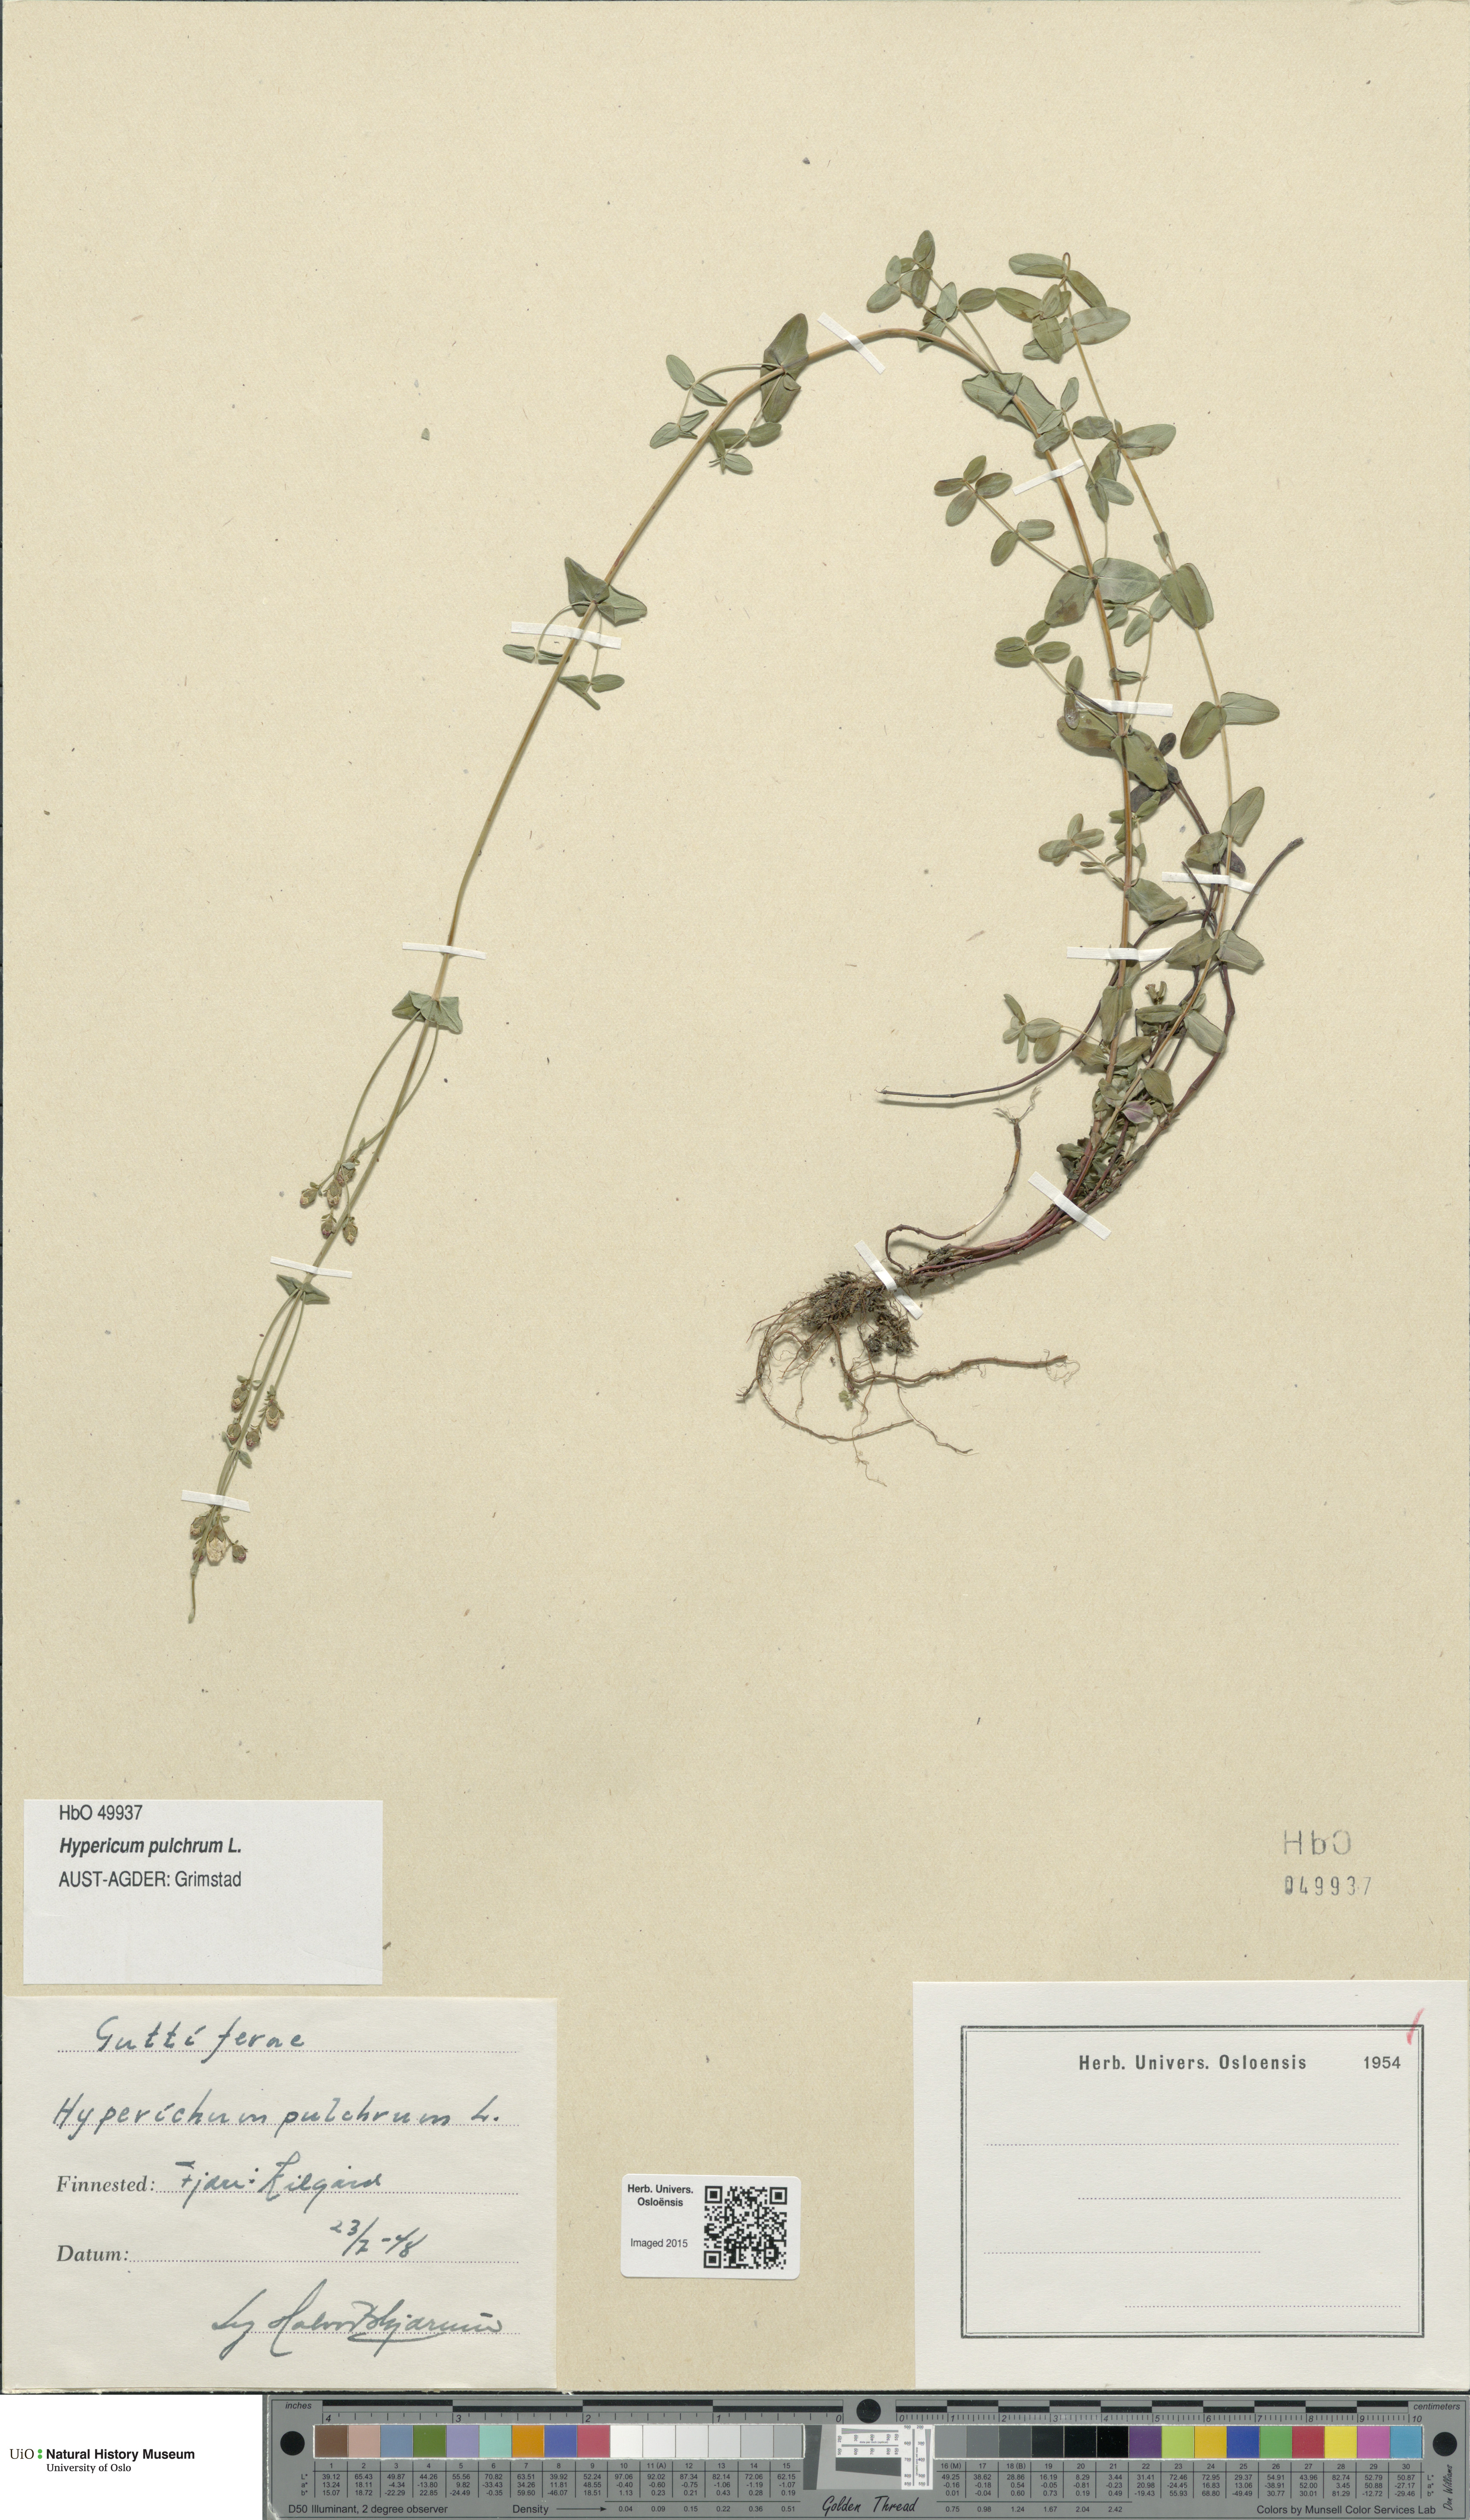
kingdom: Plantae
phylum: Tracheophyta
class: Magnoliopsida
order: Malpighiales
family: Hypericaceae
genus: Hypericum
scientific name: Hypericum pulchrum
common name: Slender st. john's-wort
